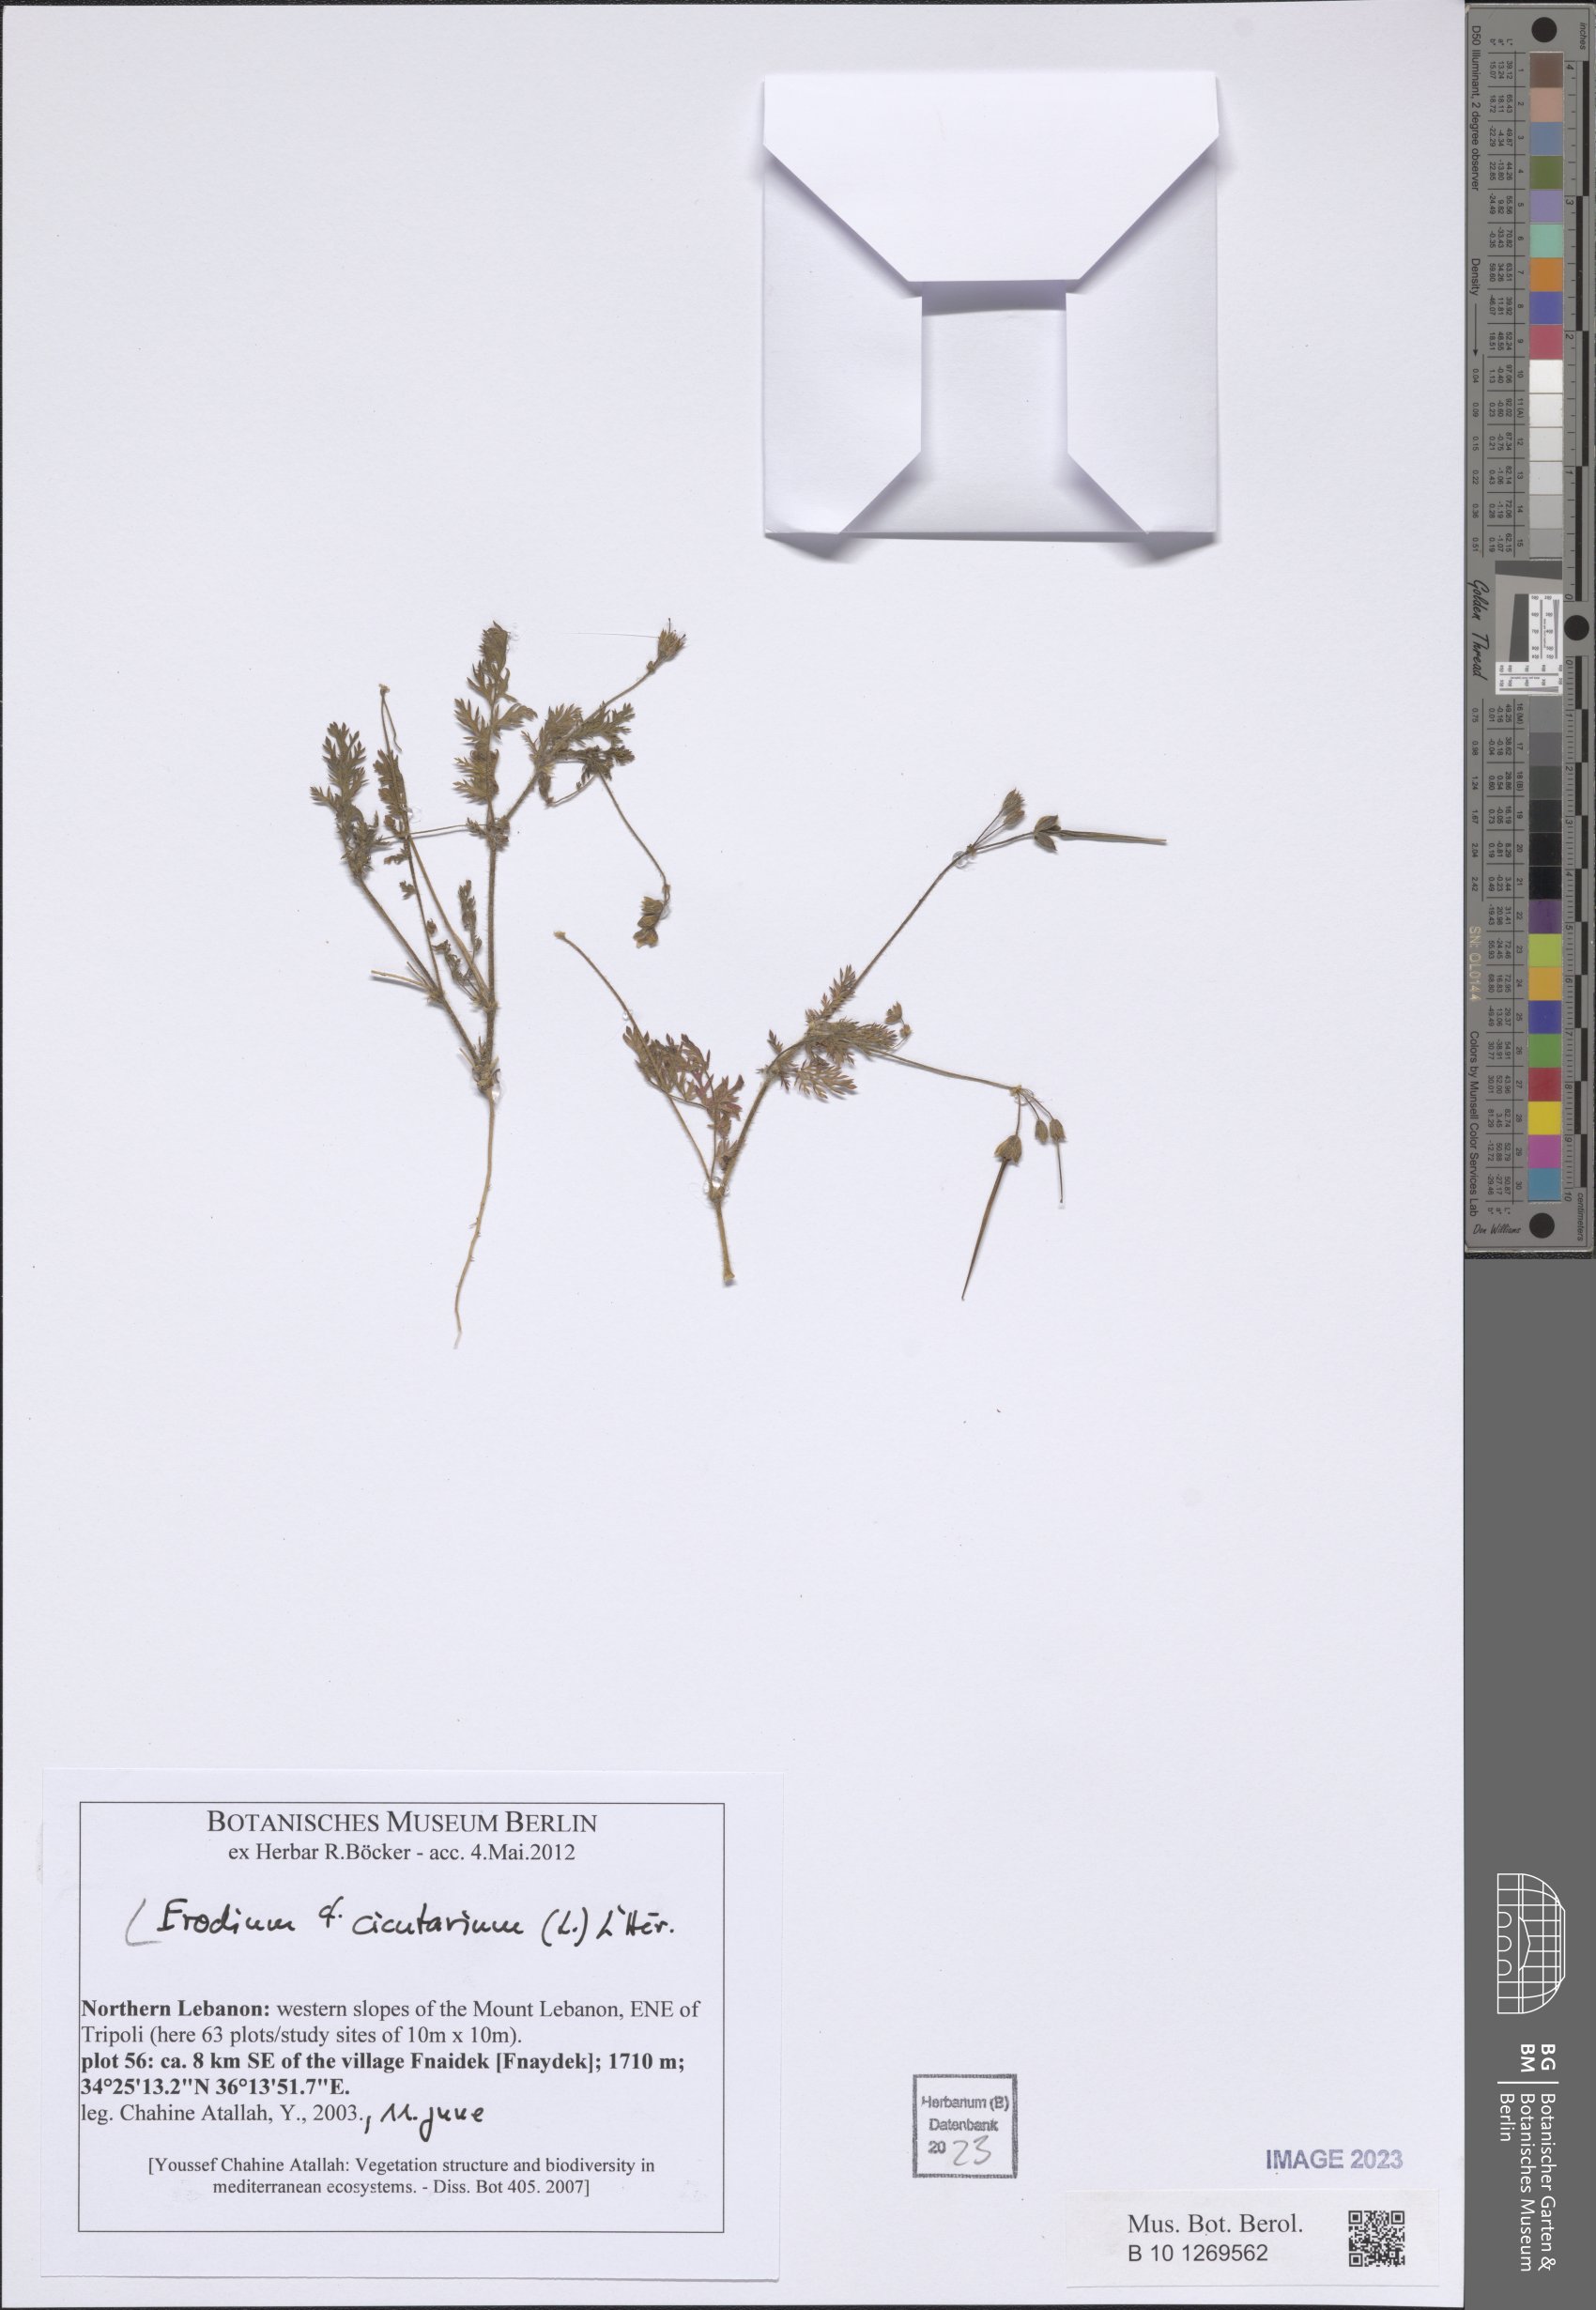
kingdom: Plantae
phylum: Tracheophyta
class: Magnoliopsida
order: Geraniales
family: Geraniaceae
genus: Erodium
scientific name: Erodium cicutarium
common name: Common stork's-bill
